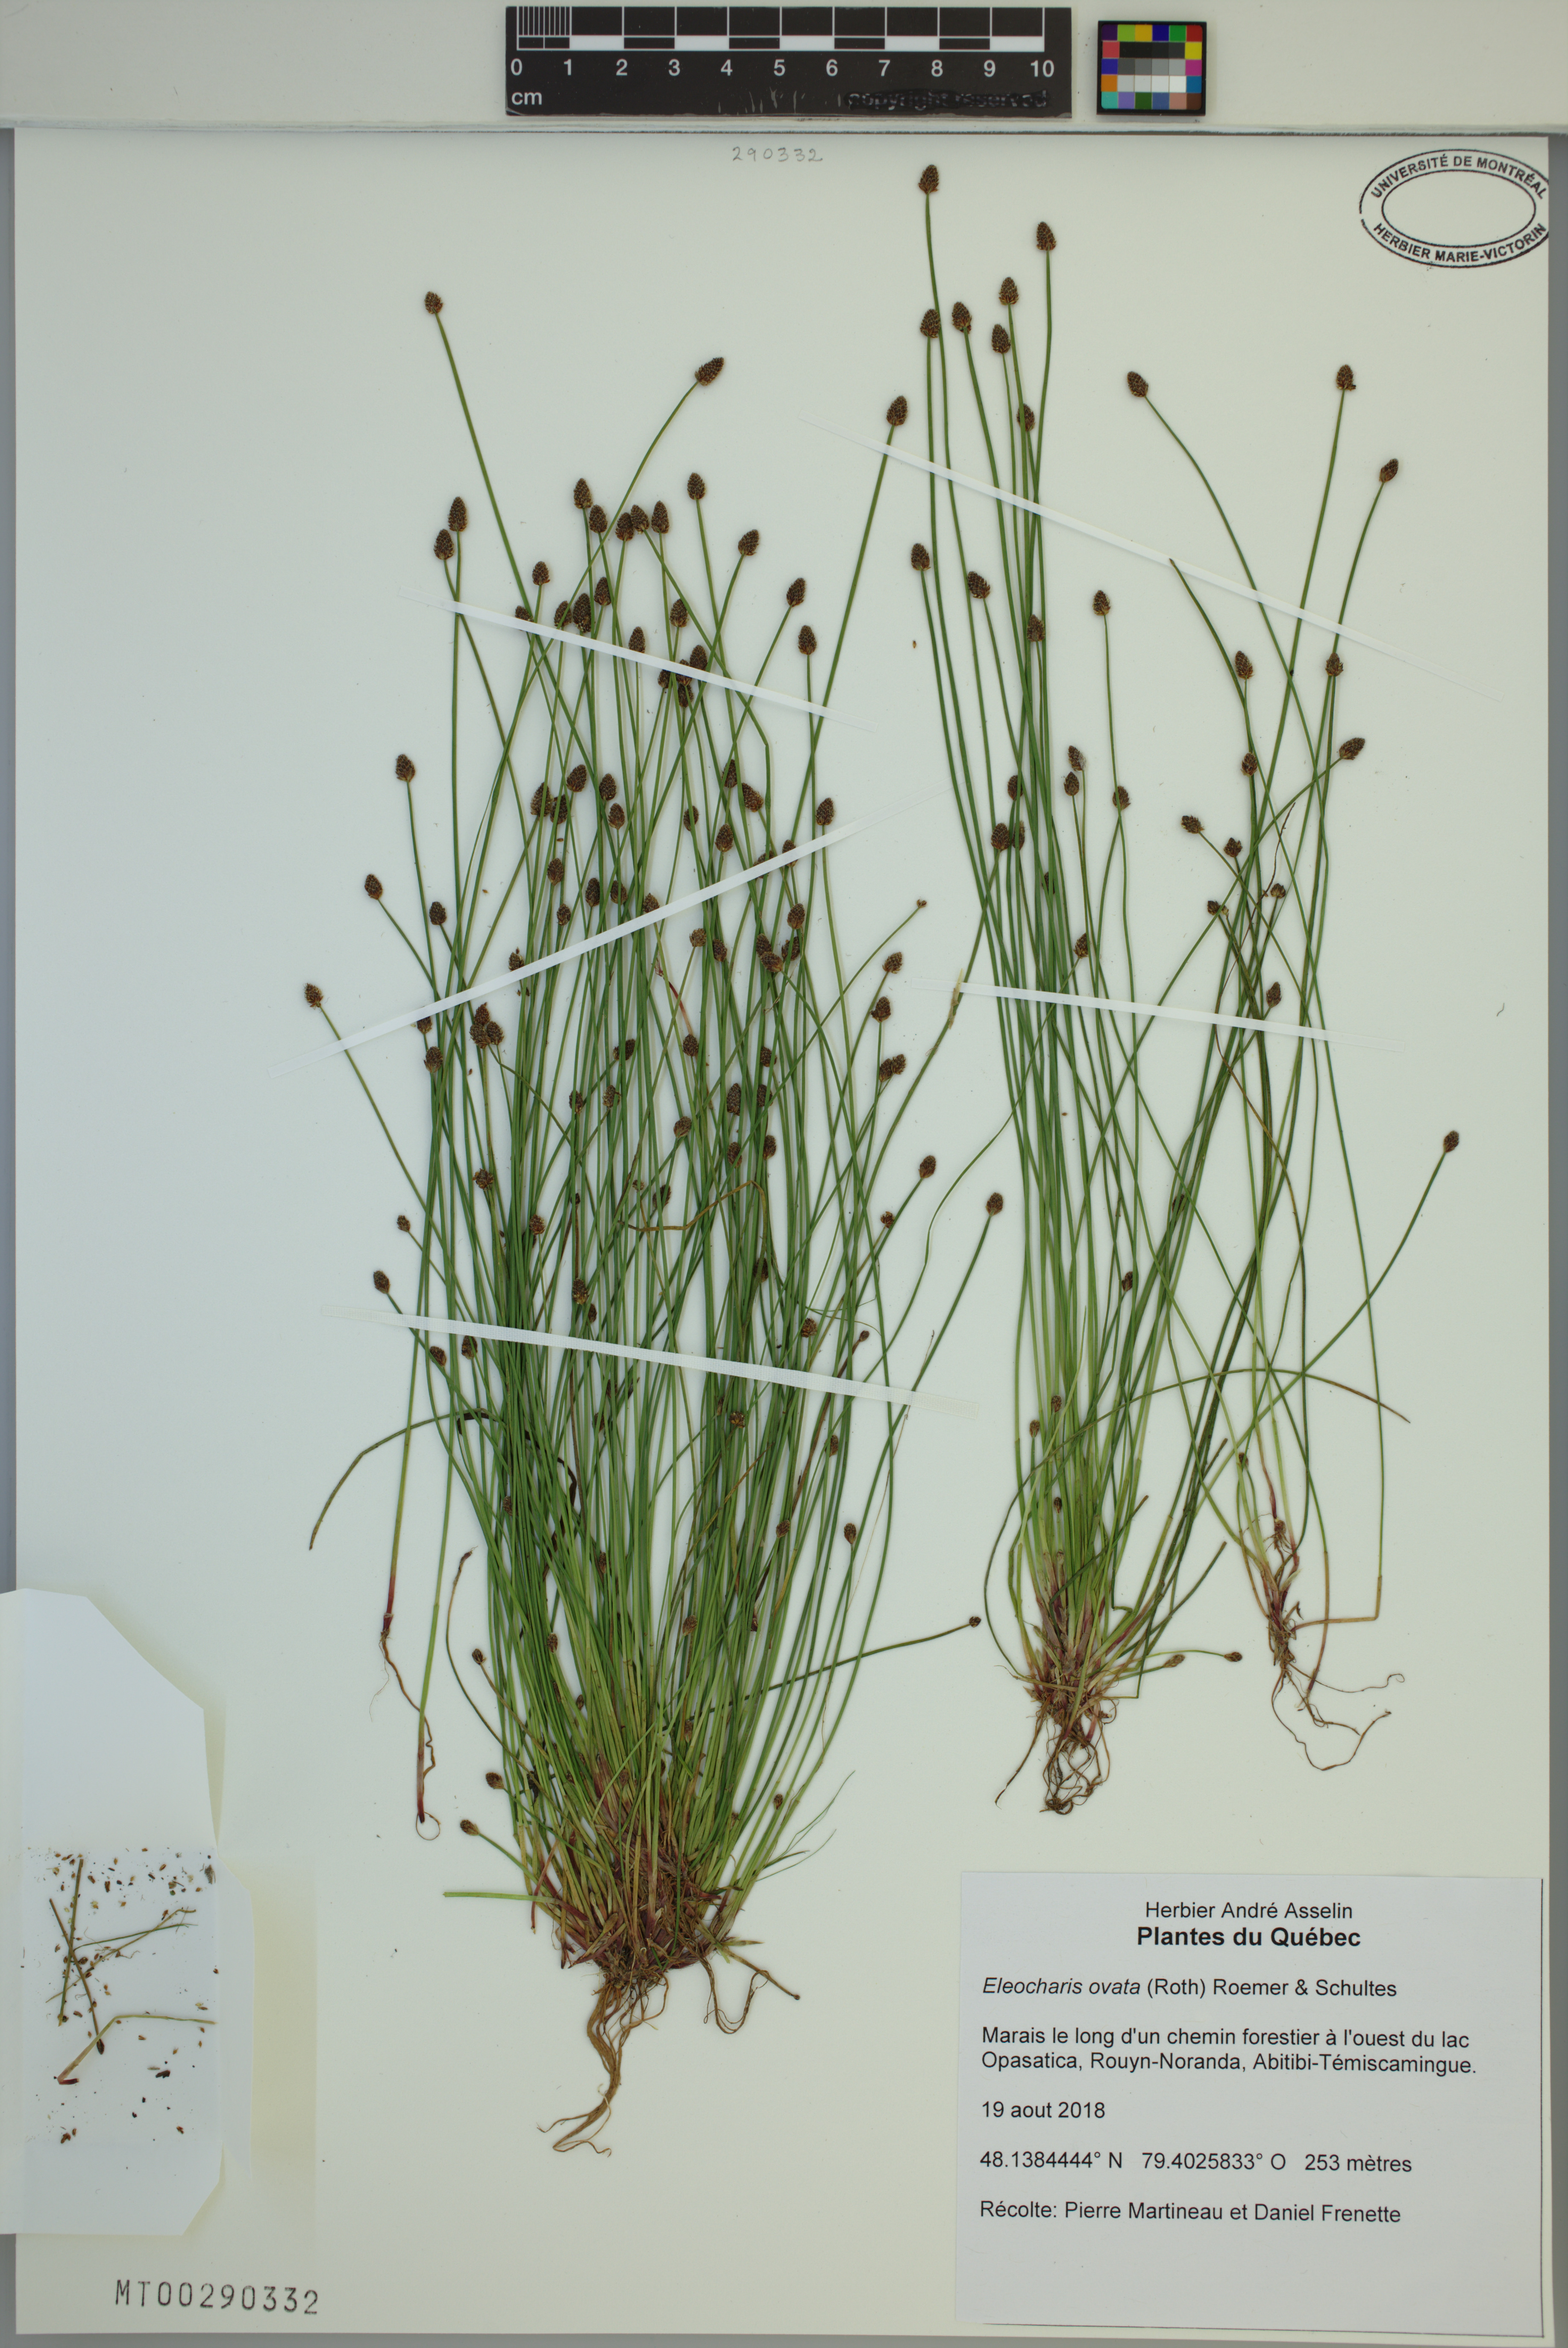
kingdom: Plantae
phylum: Tracheophyta
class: Liliopsida
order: Poales
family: Cyperaceae
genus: Eleocharis
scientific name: Eleocharis ovata
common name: Oval spike-rush
